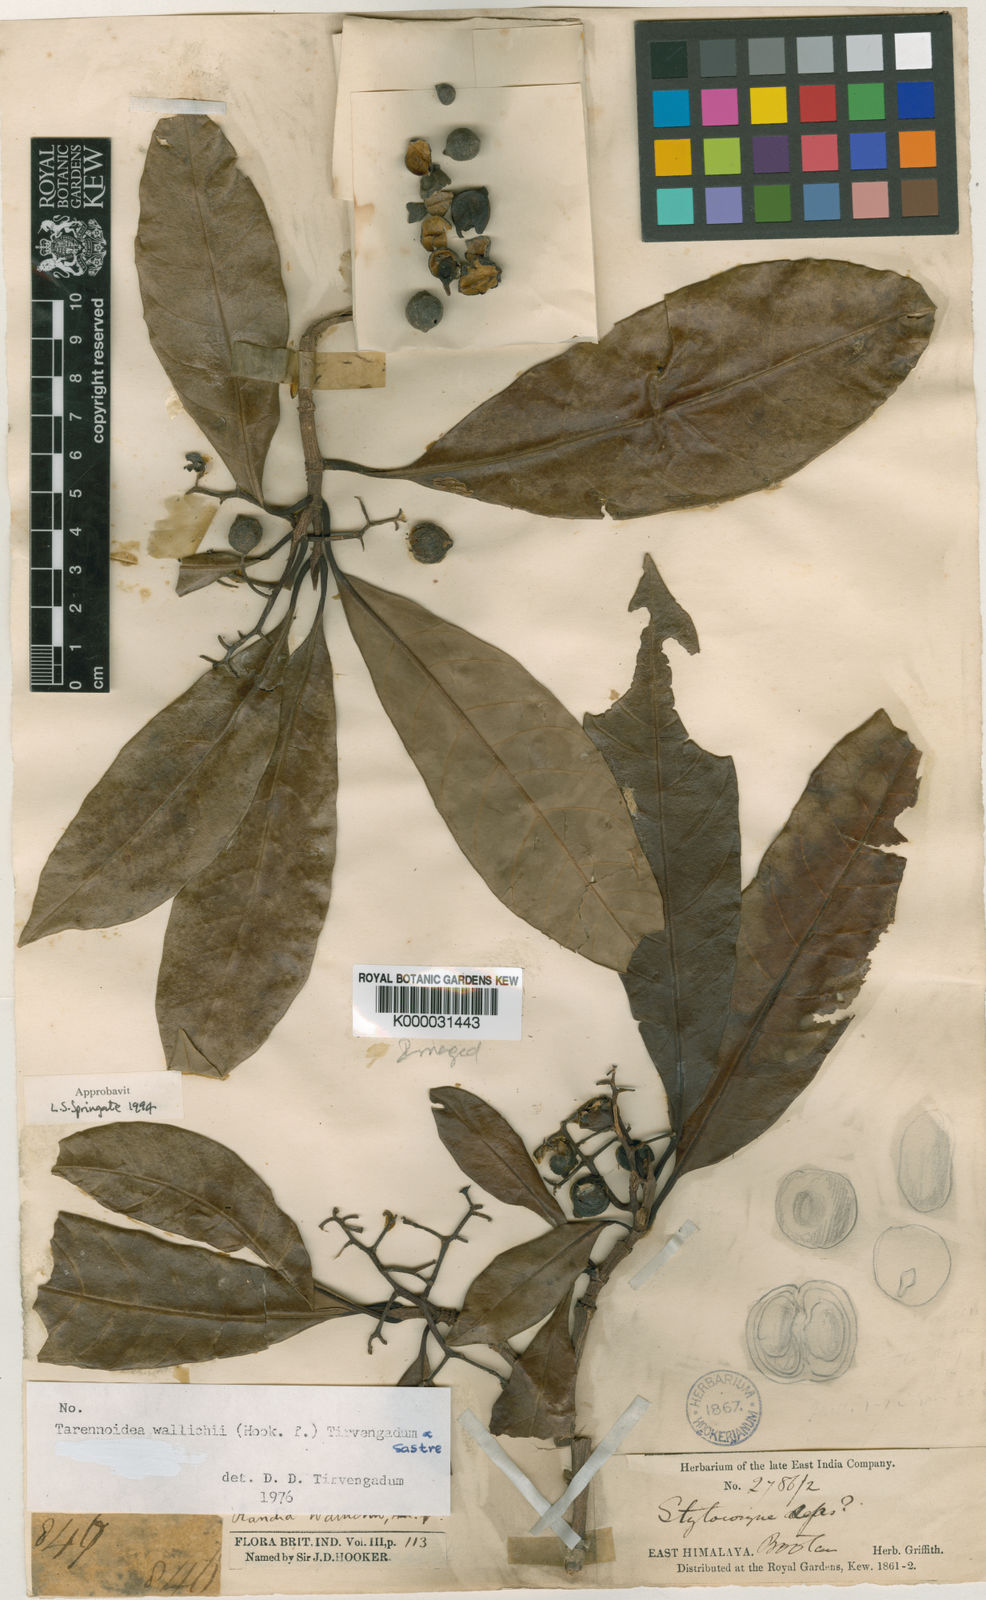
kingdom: Plantae
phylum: Tracheophyta
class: Magnoliopsida
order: Gentianales
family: Rubiaceae
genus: Tarennoidea
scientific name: Tarennoidea wallichii
